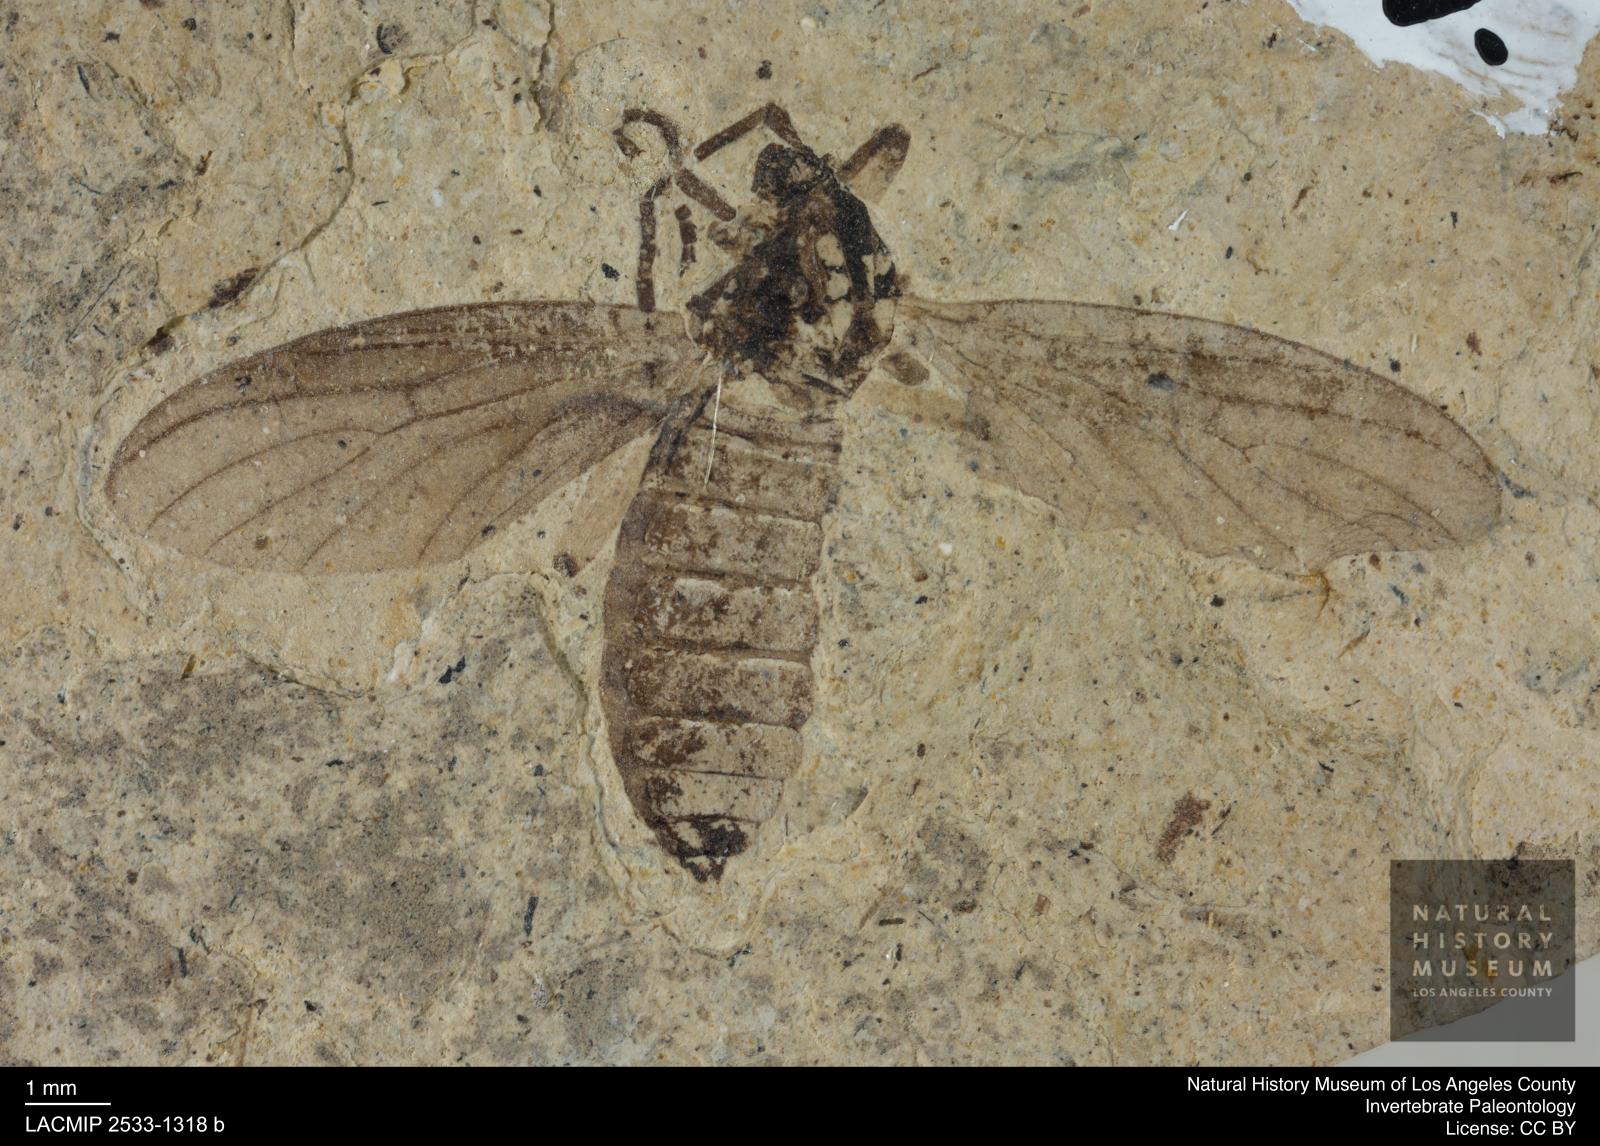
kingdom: Animalia
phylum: Arthropoda
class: Insecta
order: Diptera
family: Bibionidae
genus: Plecia
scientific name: Plecia grossa
